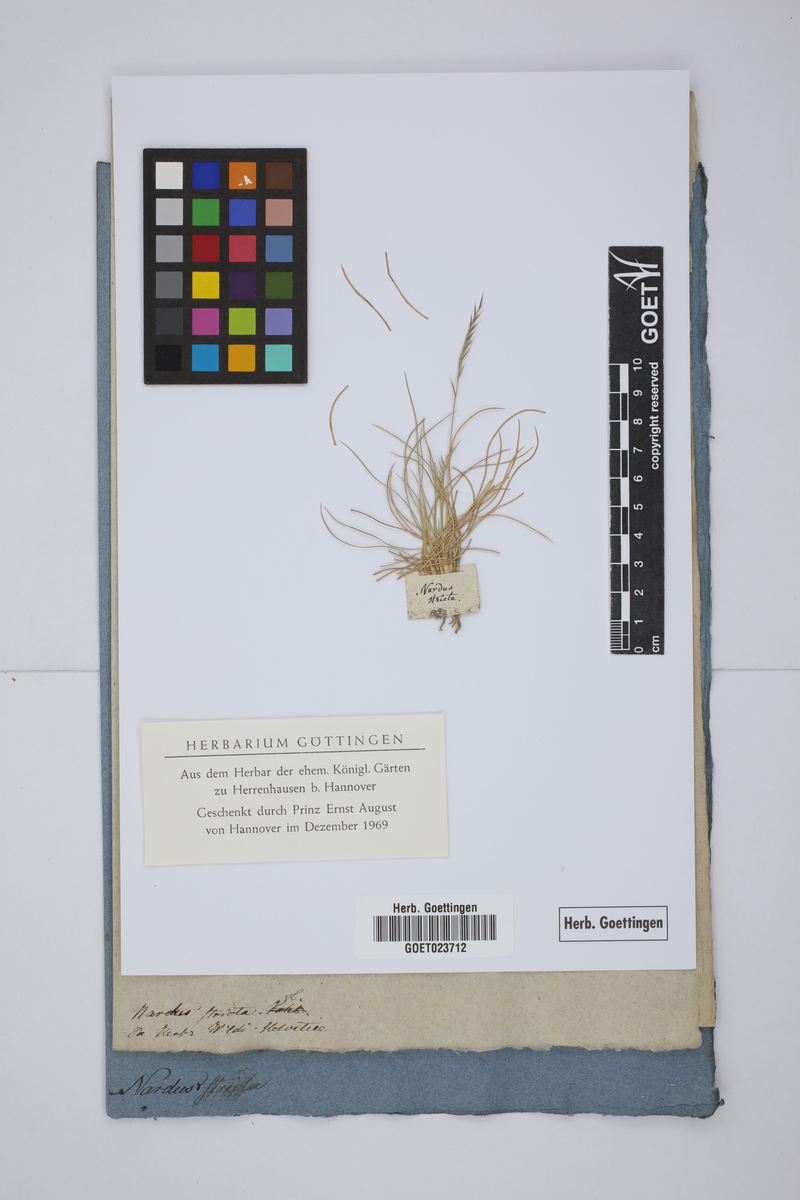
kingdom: Plantae
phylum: Tracheophyta
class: Liliopsida
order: Poales
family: Poaceae
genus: Nardus
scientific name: Nardus stricta
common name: Mat-grass
